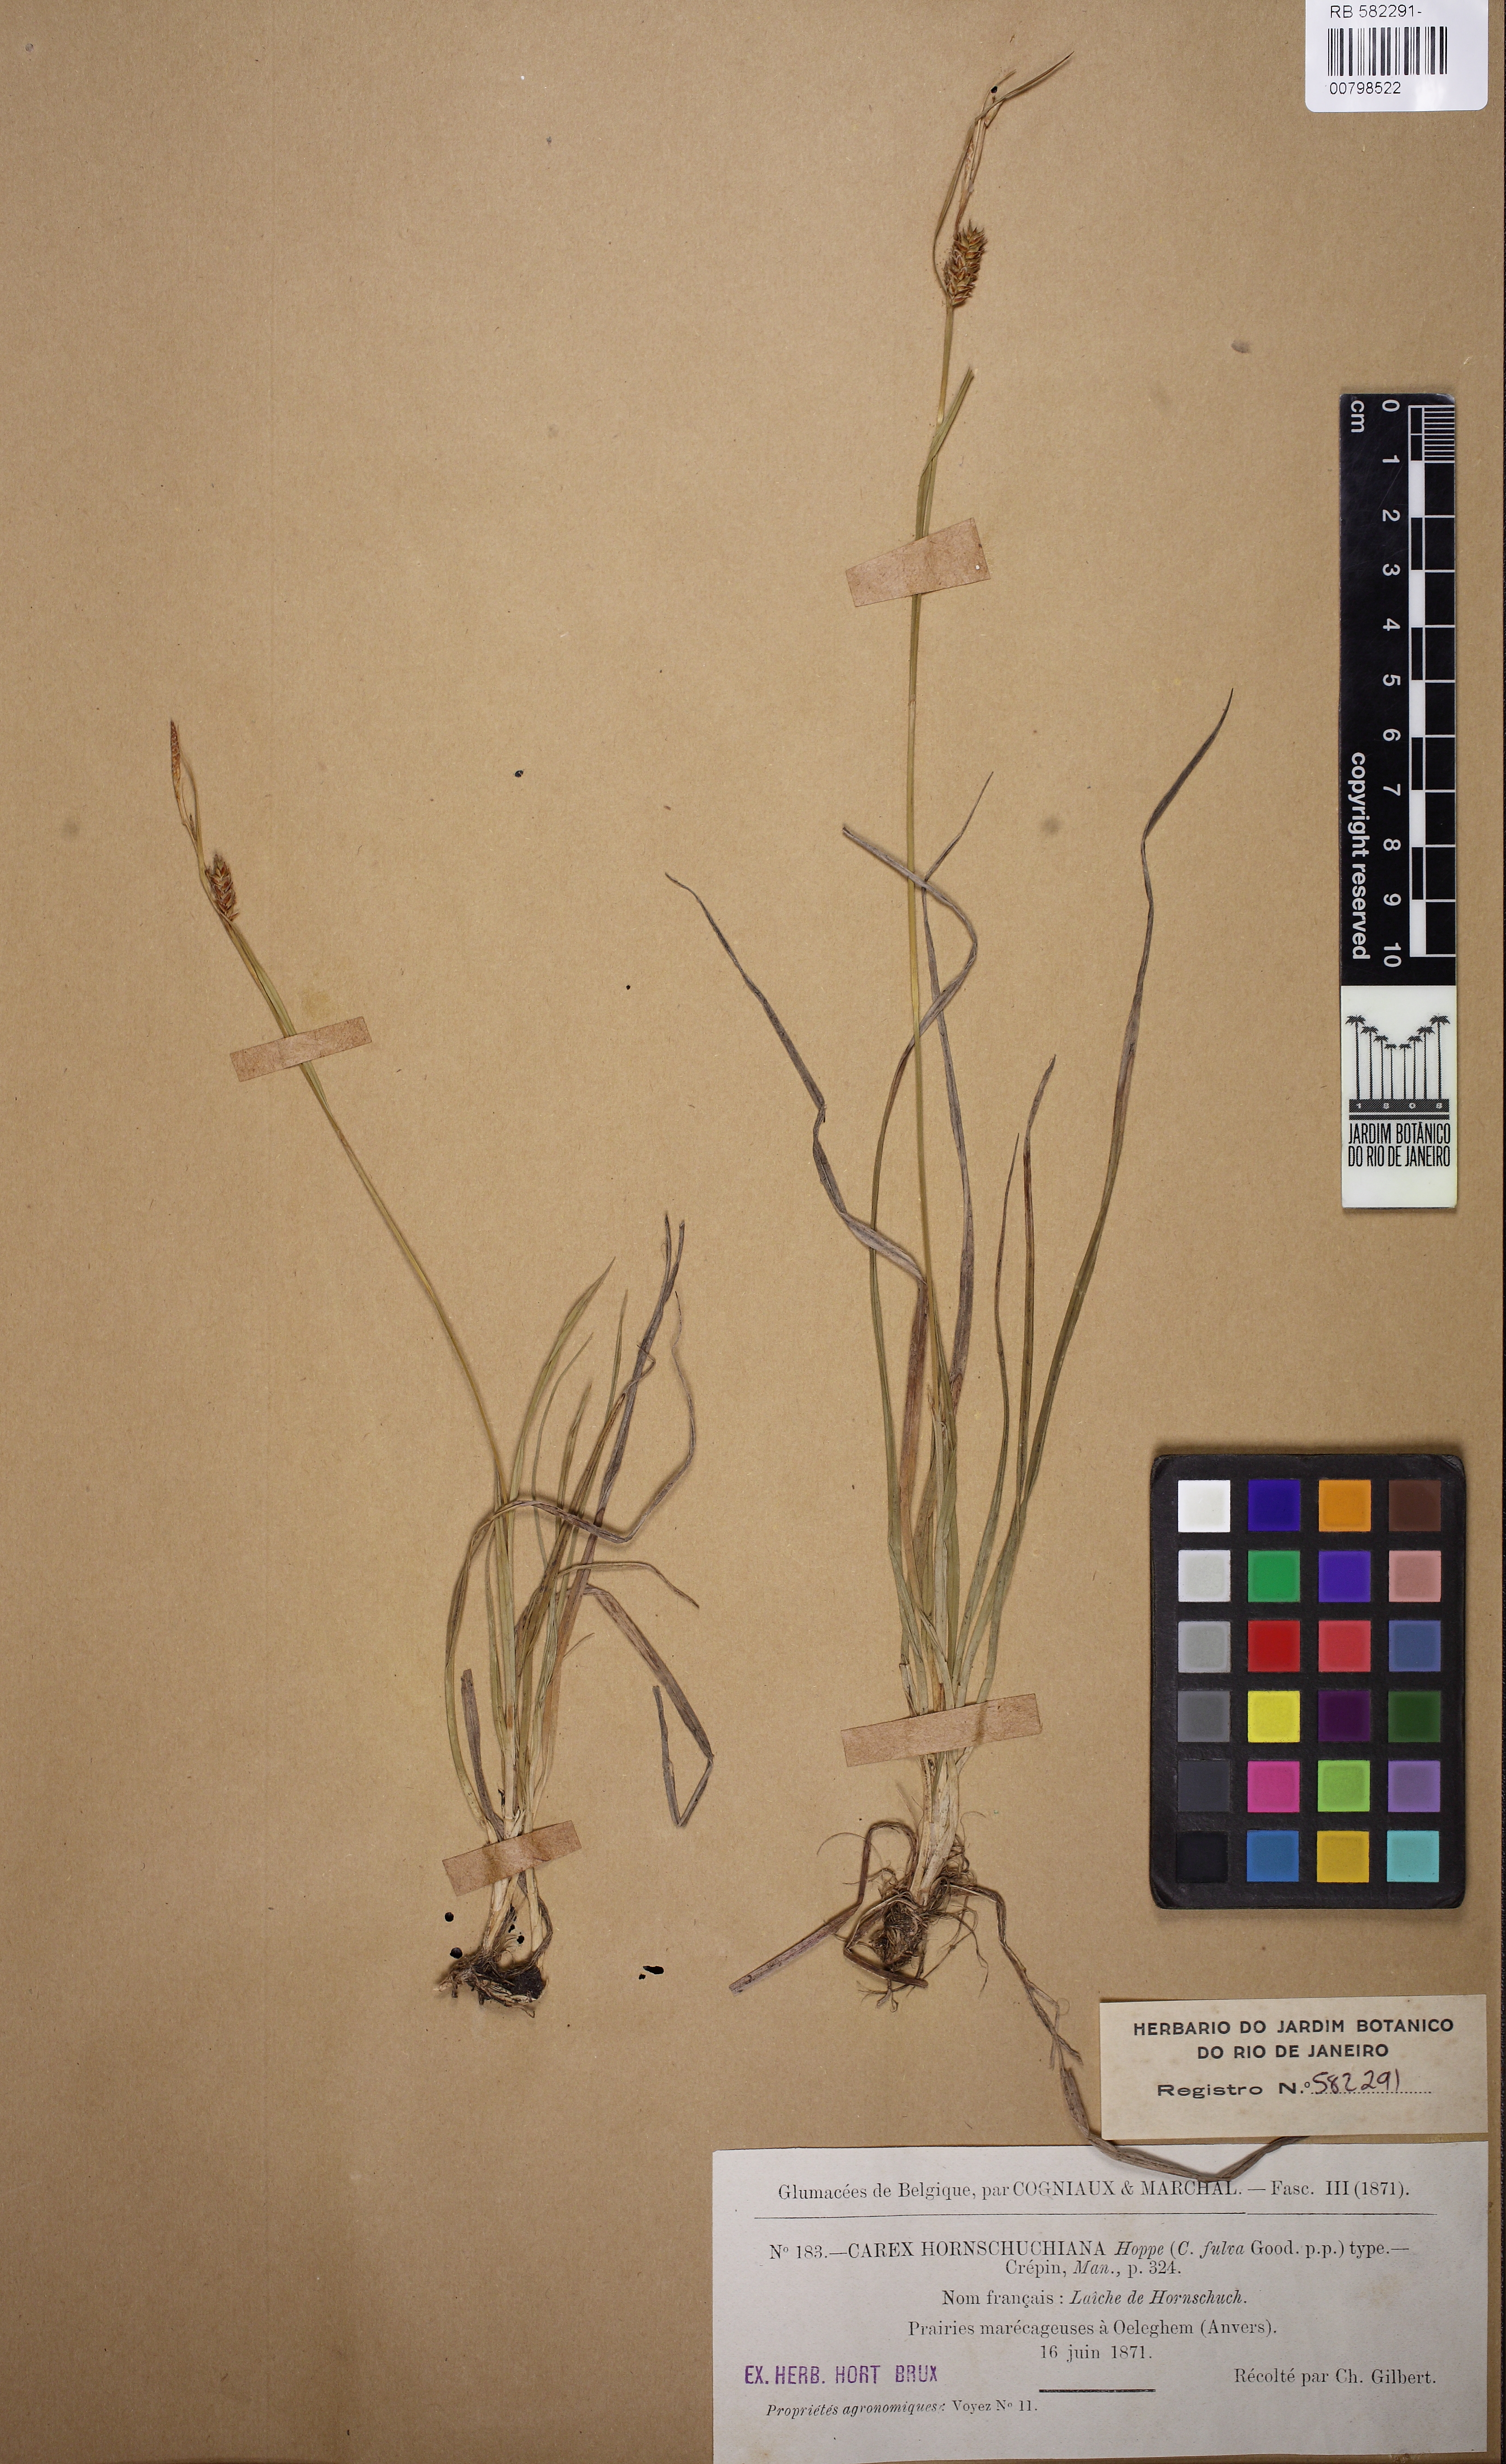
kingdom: Plantae
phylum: Tracheophyta
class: Liliopsida
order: Poales
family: Cyperaceae
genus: Carex
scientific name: Carex hostiana
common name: Tawny sedge
